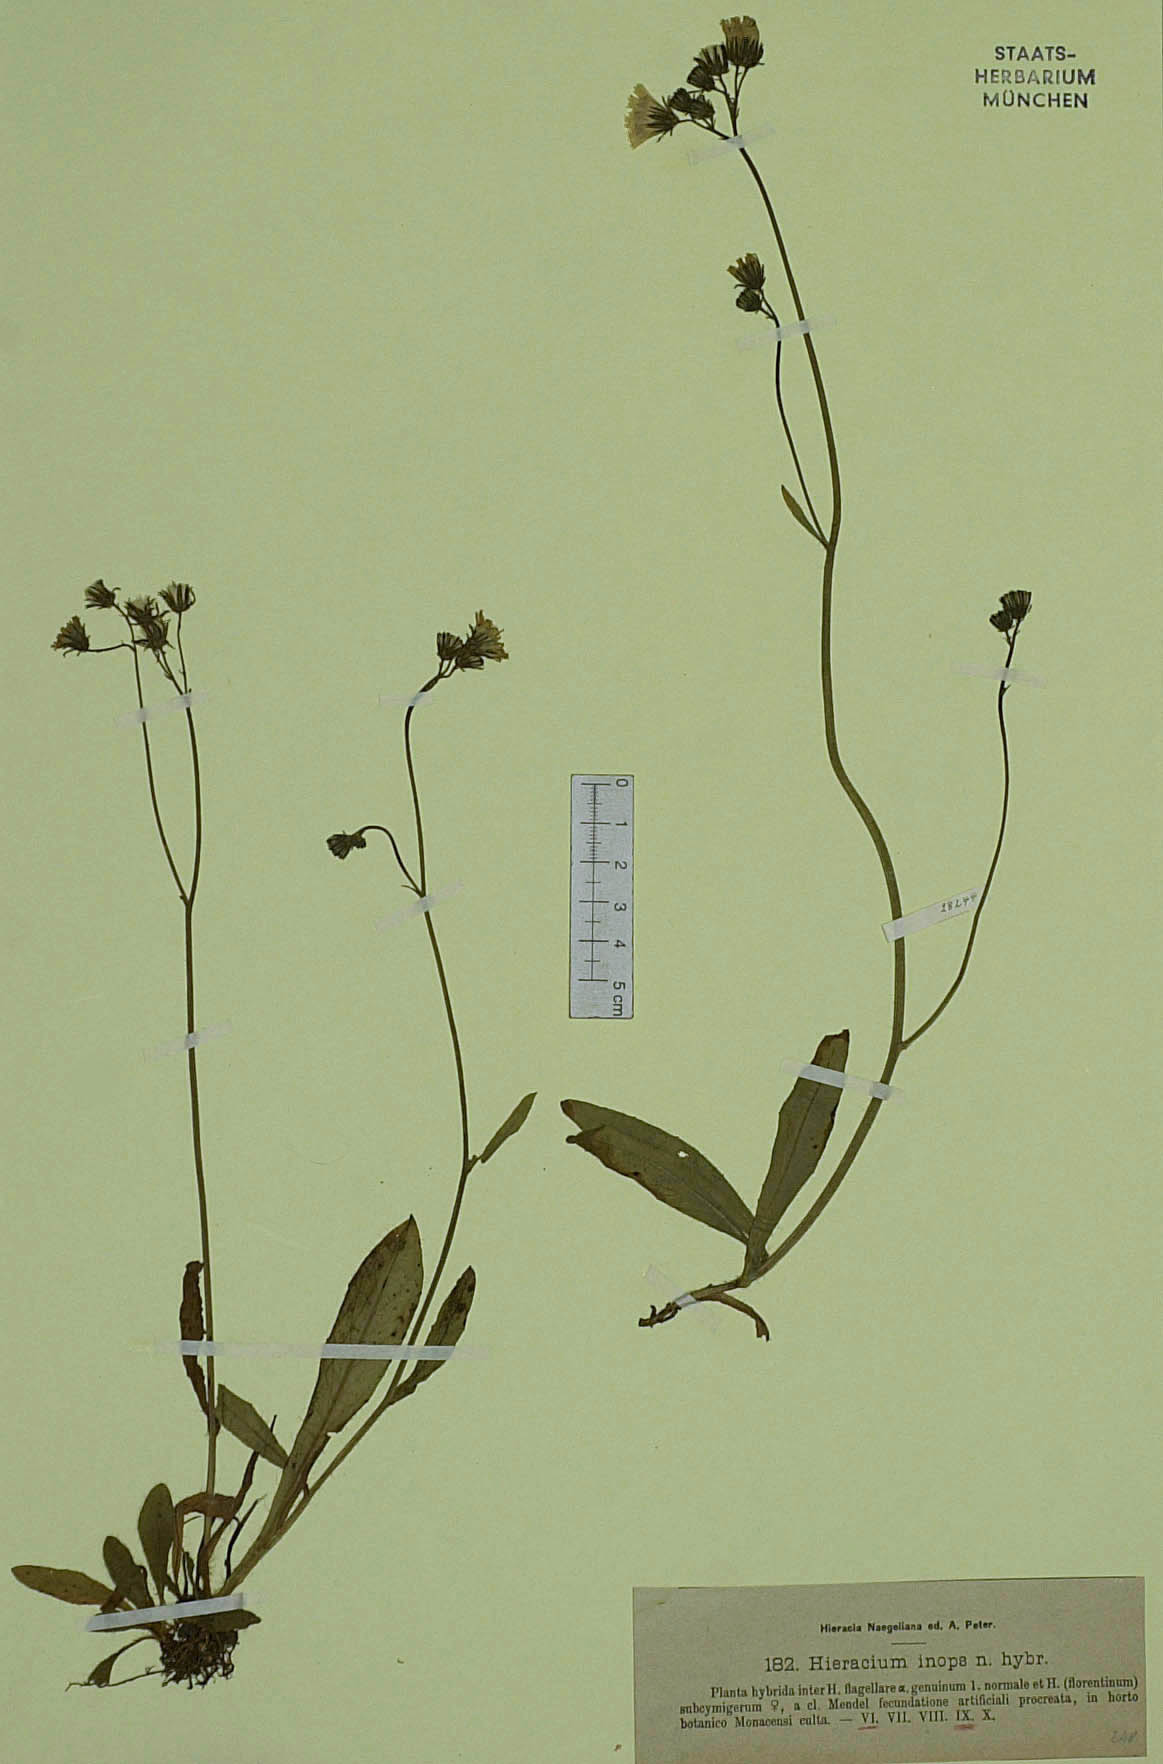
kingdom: Plantae
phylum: Tracheophyta
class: Magnoliopsida
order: Asterales
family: Asteraceae
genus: Hieracium
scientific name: Hieracium inops
